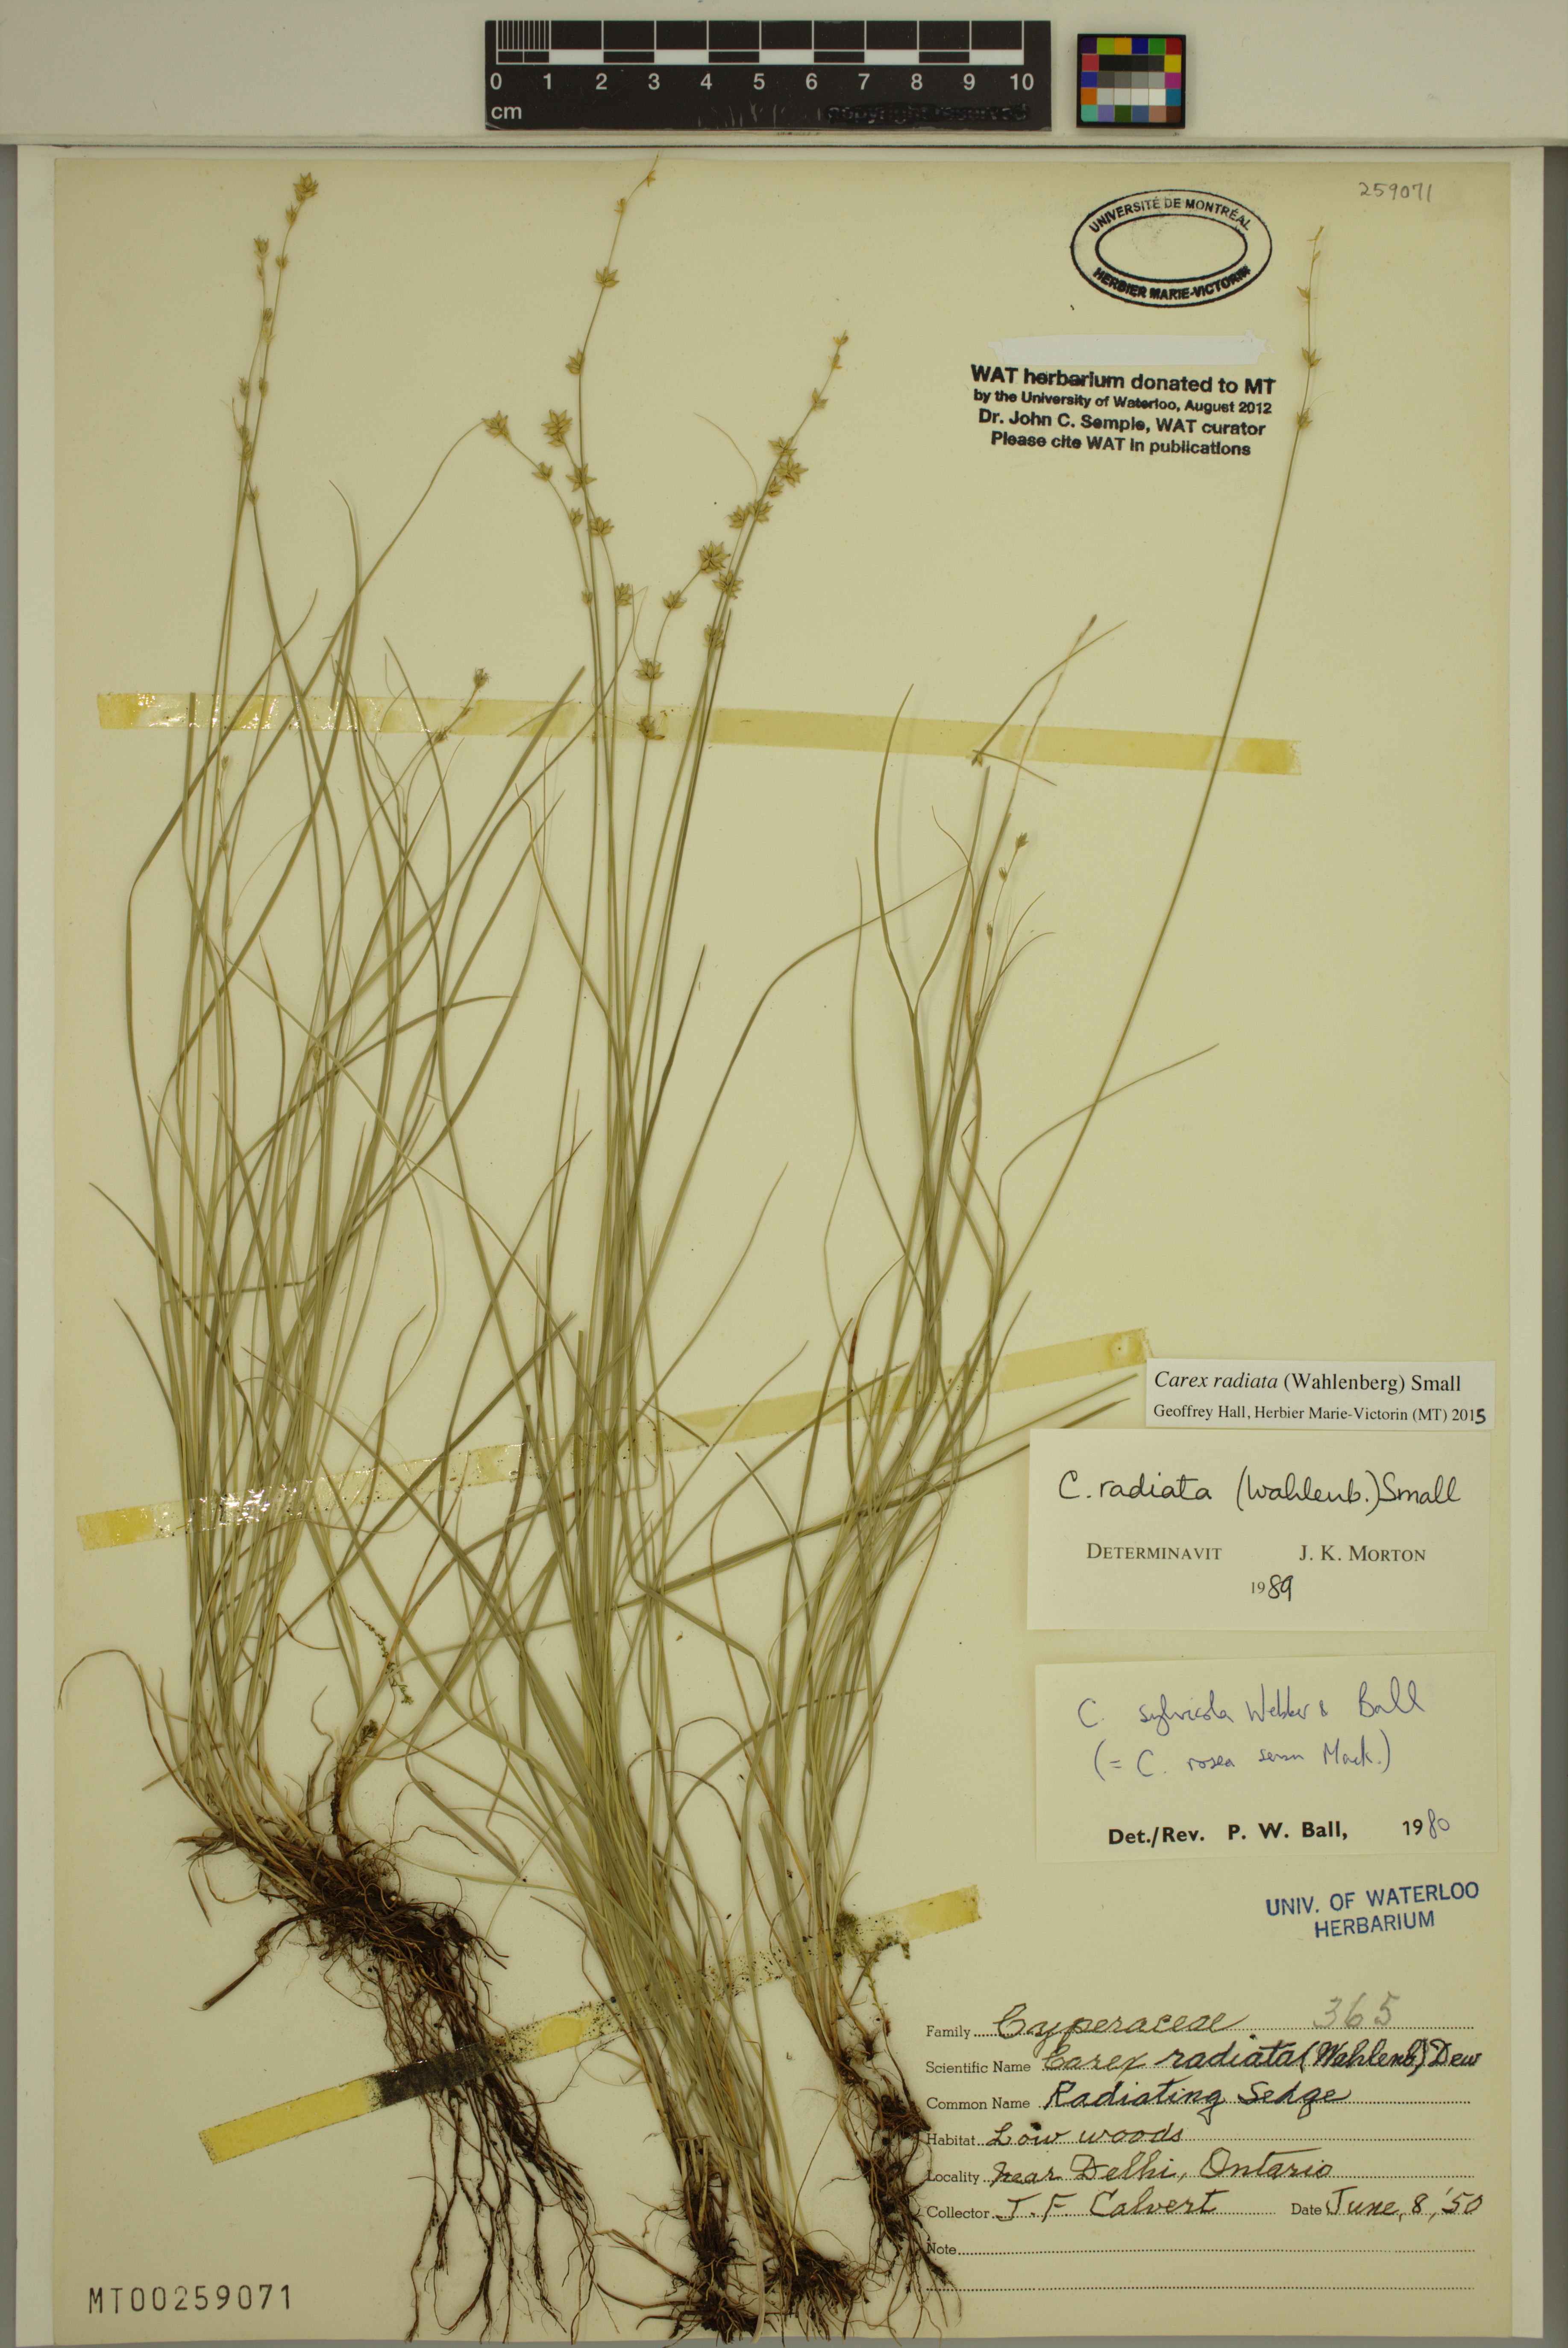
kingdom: Plantae
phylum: Tracheophyta
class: Liliopsida
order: Poales
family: Cyperaceae
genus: Carex
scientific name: Carex radiata
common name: Eastern star sedge
